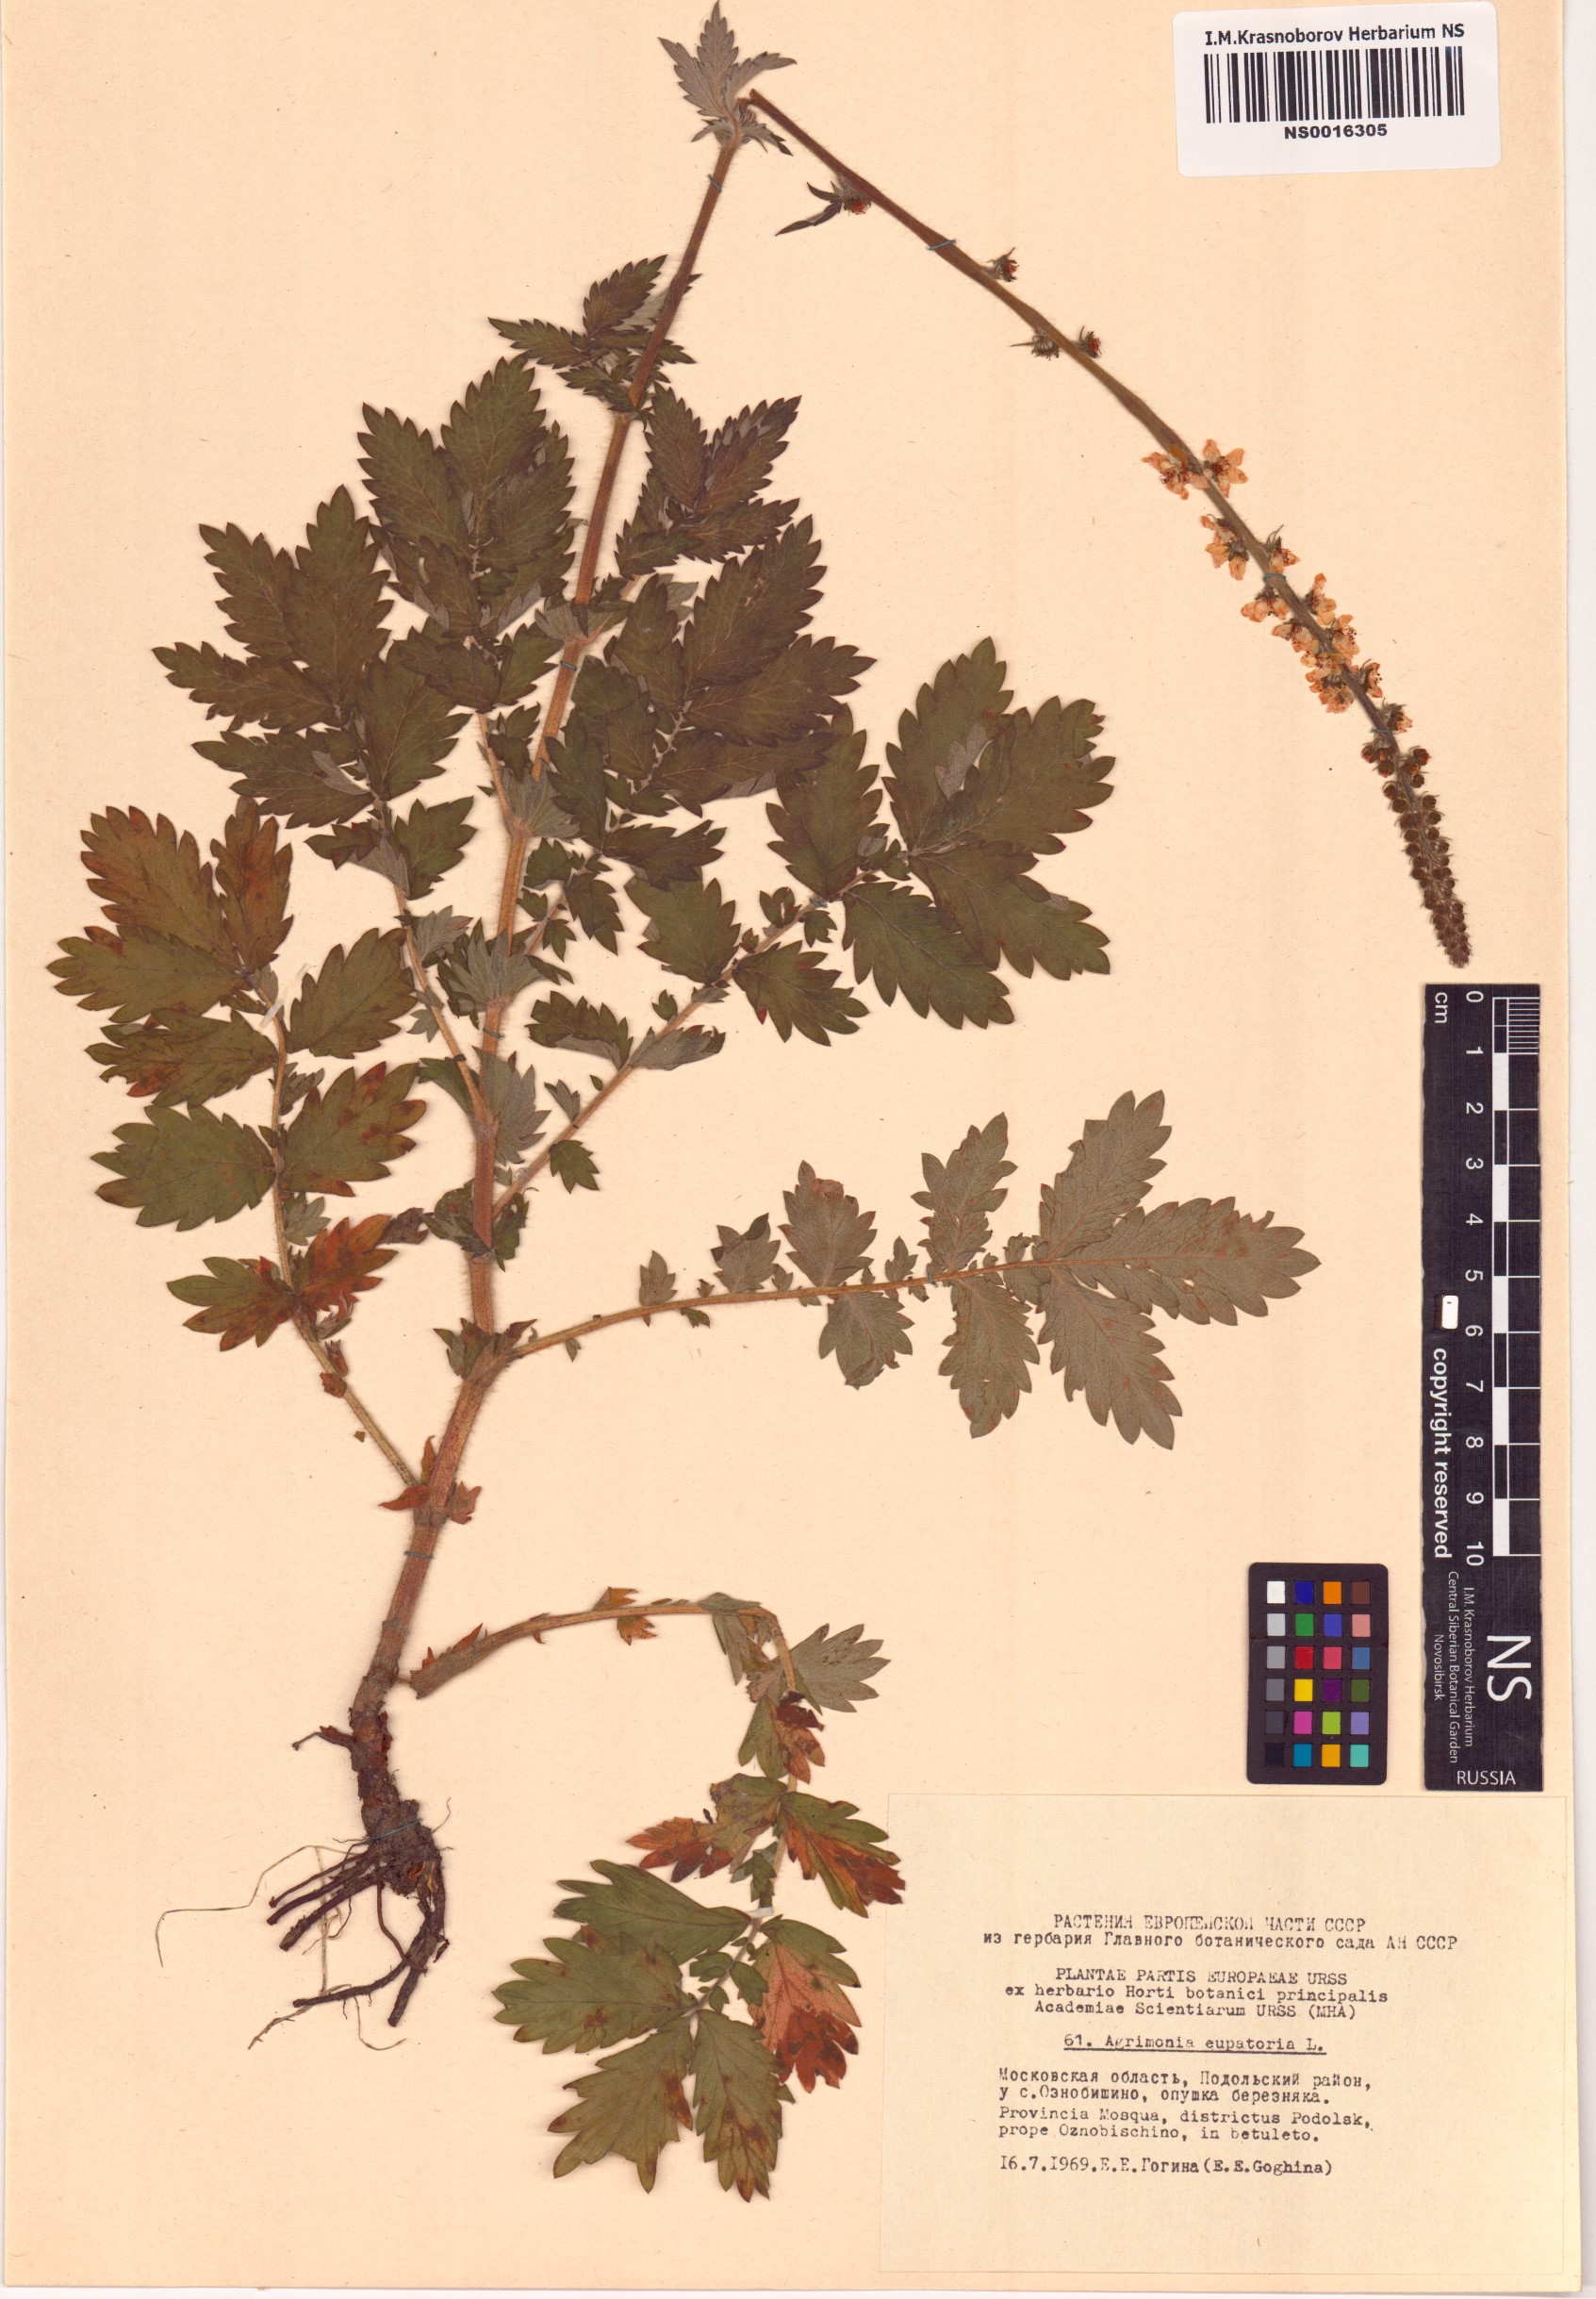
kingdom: Plantae
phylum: Tracheophyta
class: Magnoliopsida
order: Rosales
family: Rosaceae
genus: Agrimonia
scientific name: Agrimonia eupatoria
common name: Agrimony
